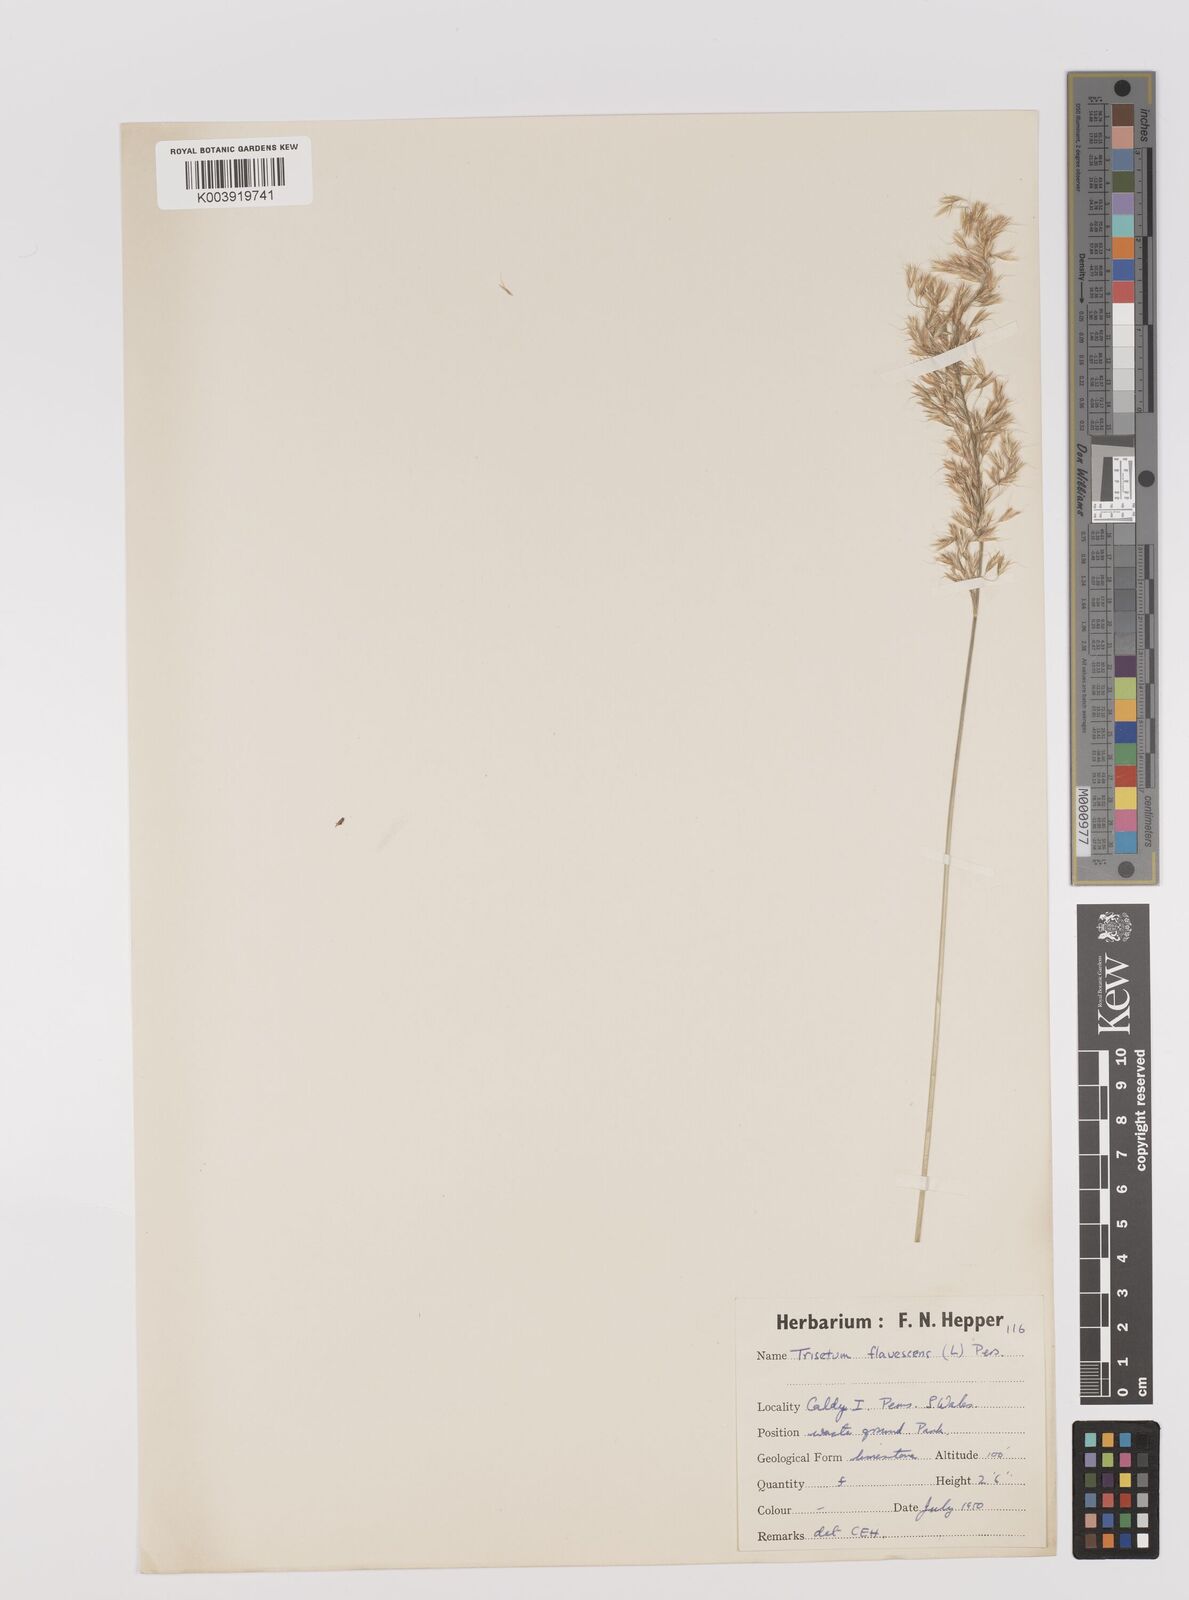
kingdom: Plantae
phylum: Tracheophyta
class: Liliopsida
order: Poales
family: Poaceae
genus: Trisetum
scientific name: Trisetum flavescens
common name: Yellow oat-grass
